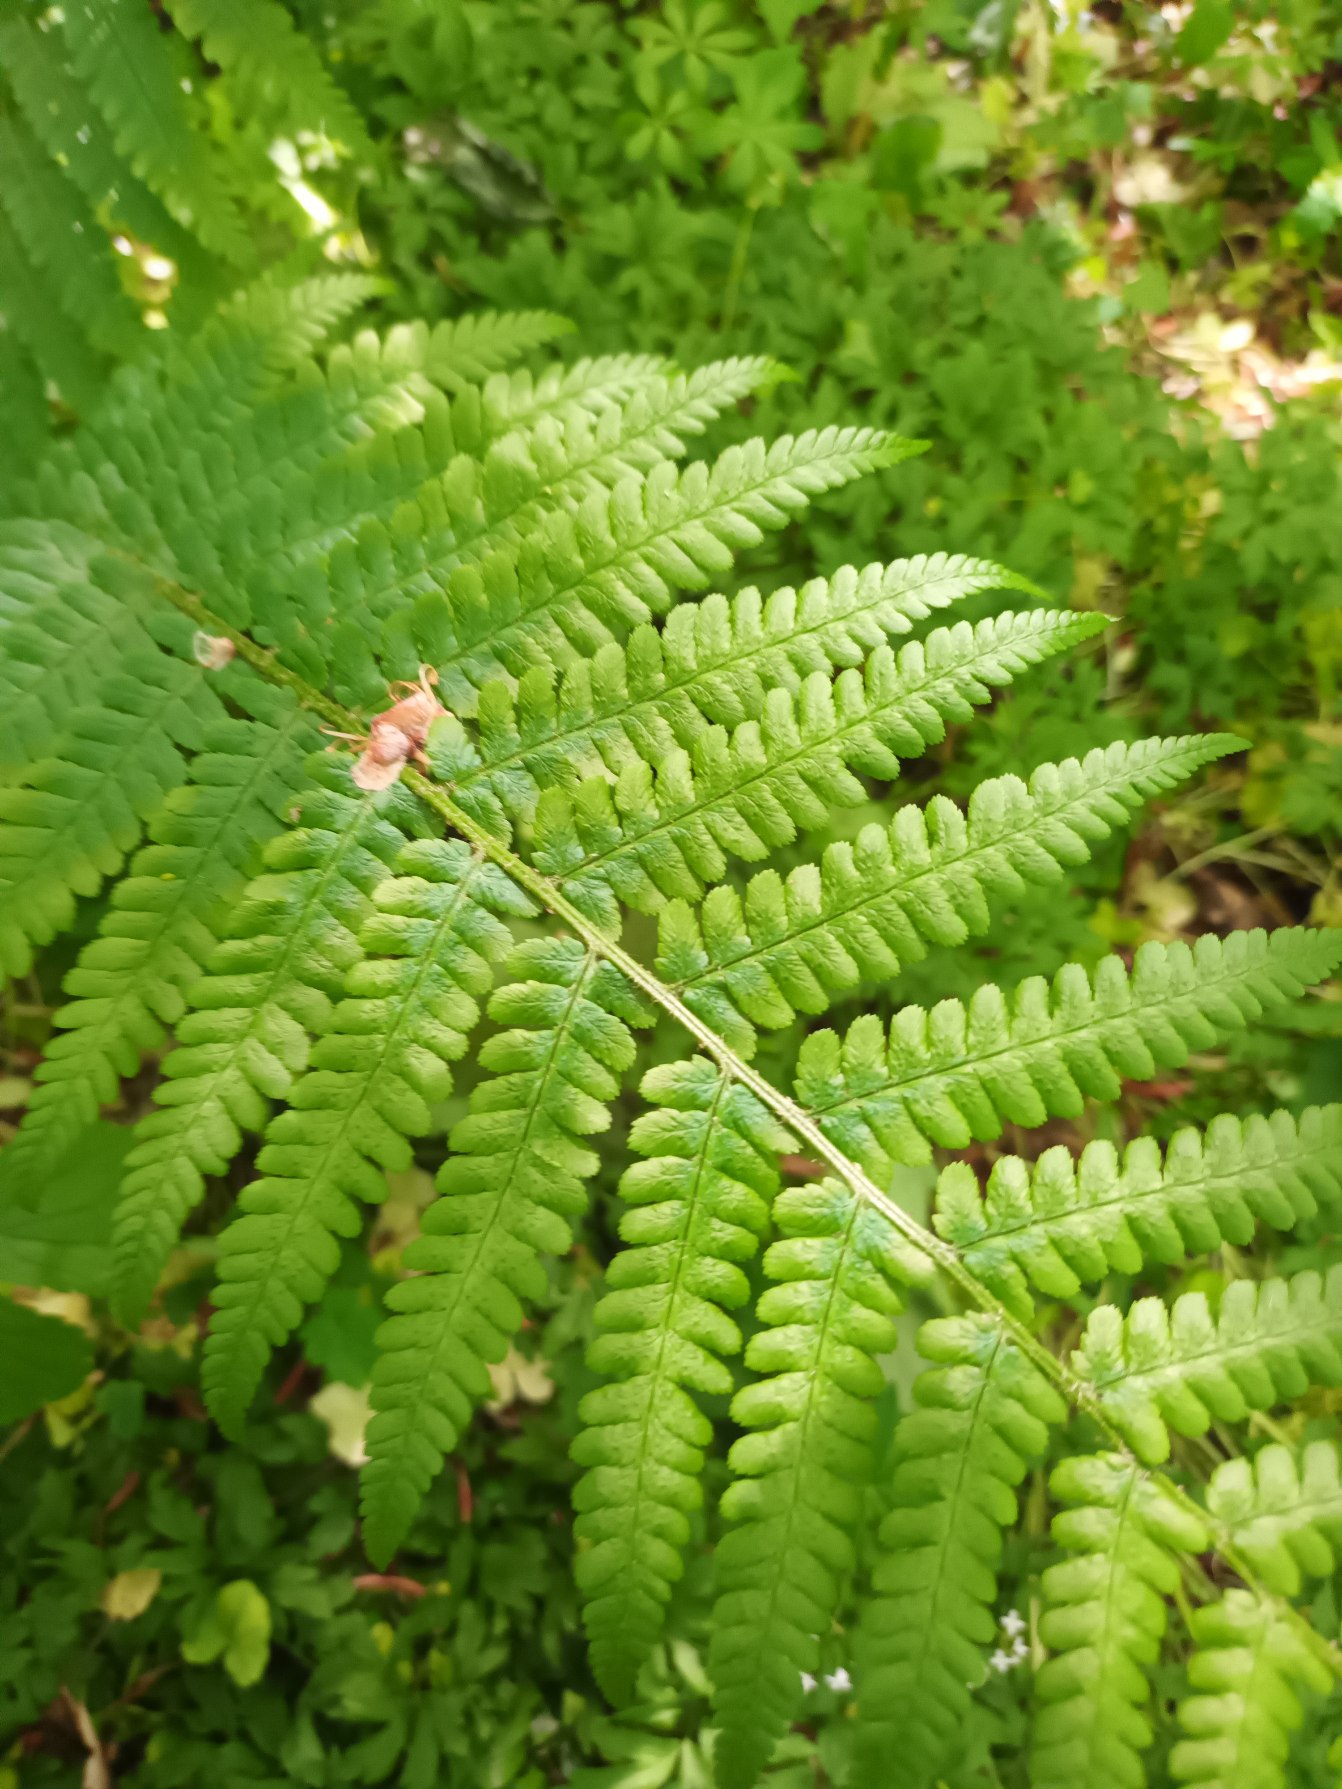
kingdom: Plantae
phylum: Tracheophyta
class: Polypodiopsida
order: Polypodiales
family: Dryopteridaceae
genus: Dryopteris
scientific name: Dryopteris filix-mas
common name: Almindelig mangeløv
